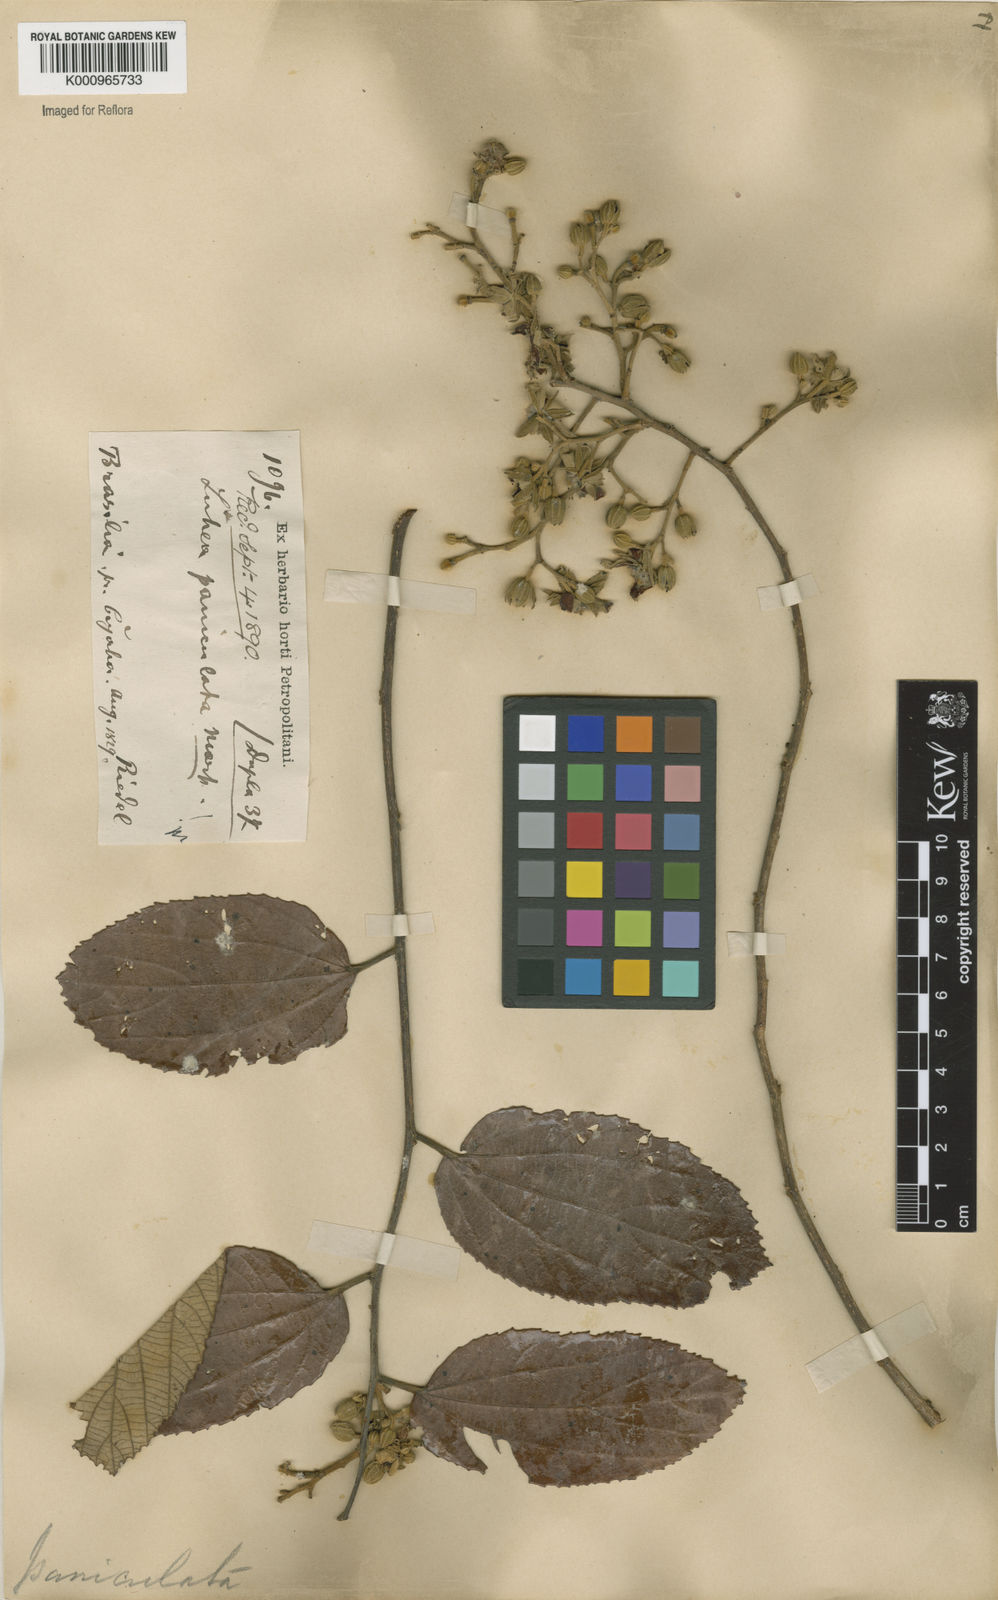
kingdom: Plantae
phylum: Tracheophyta
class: Magnoliopsida
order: Malvales
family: Malvaceae
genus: Luehea
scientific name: Luehea paniculata
